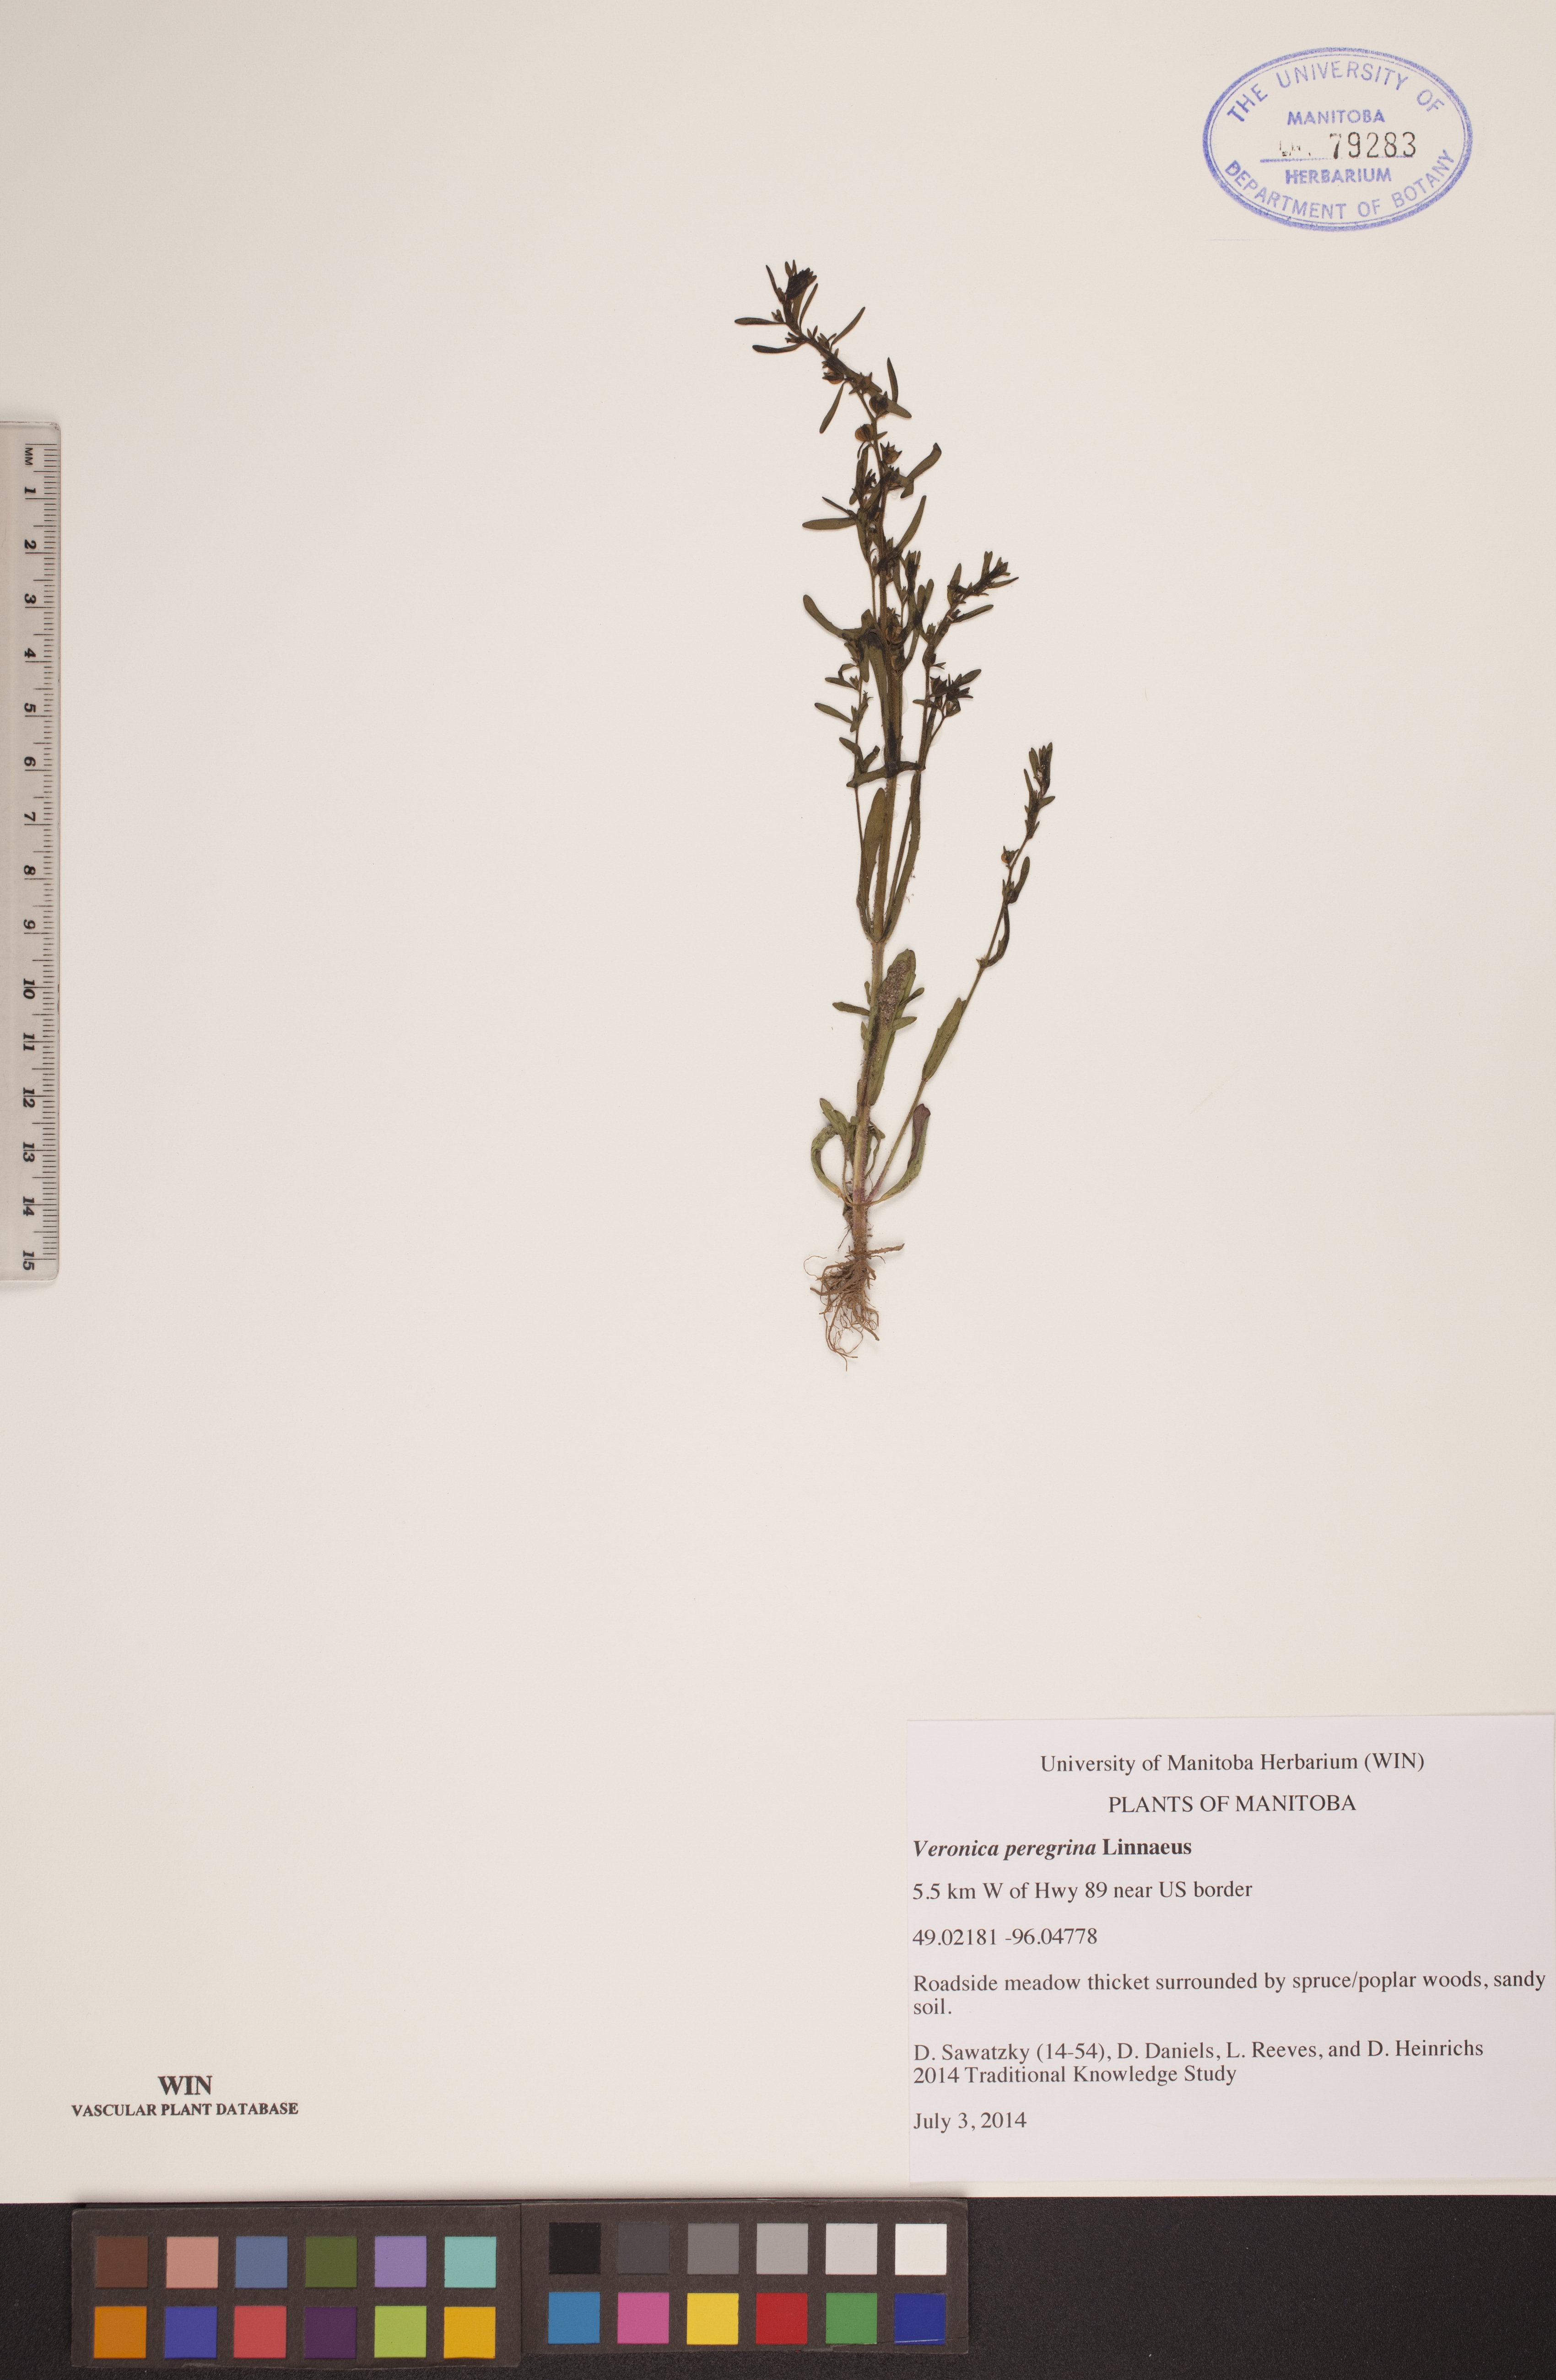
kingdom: Plantae
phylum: Tracheophyta
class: Magnoliopsida
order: Lamiales
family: Plantaginaceae
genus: Veronica
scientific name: Veronica peregrina
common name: Neckweed
